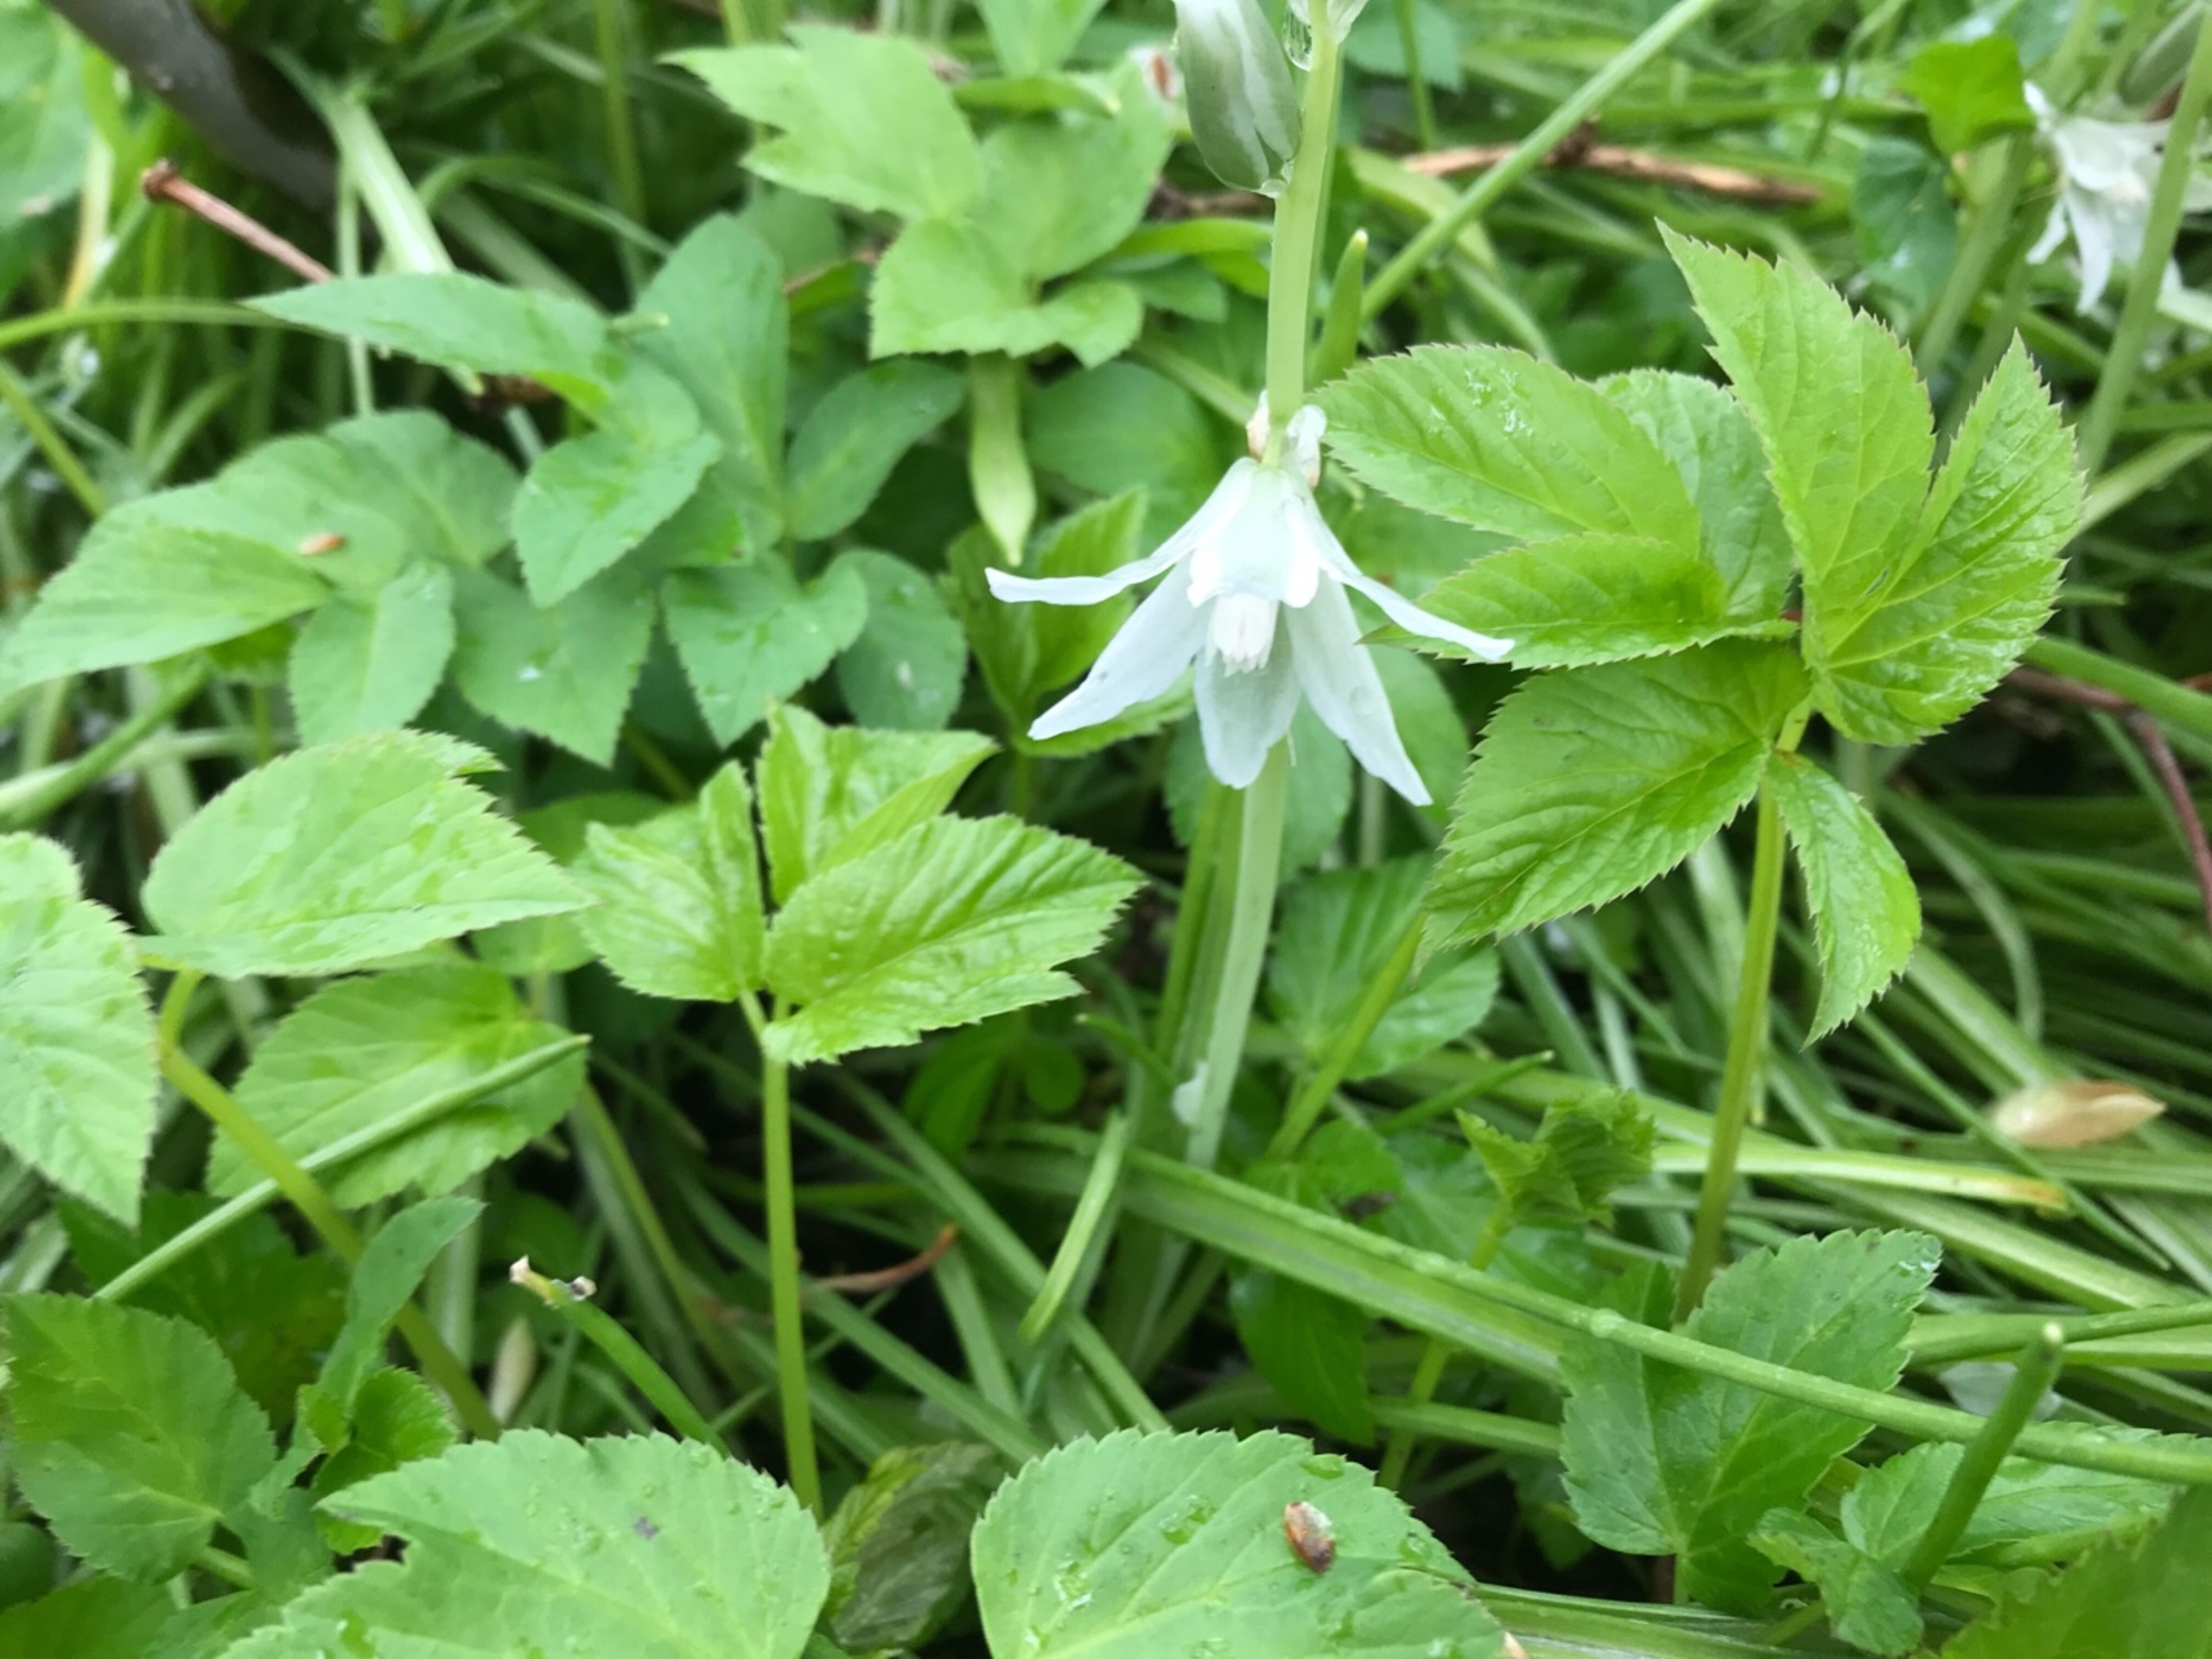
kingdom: Plantae
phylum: Tracheophyta
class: Liliopsida
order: Asparagales
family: Asparagaceae
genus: Ornithogalum
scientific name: Ornithogalum nutans
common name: Nikkende fuglemælk
